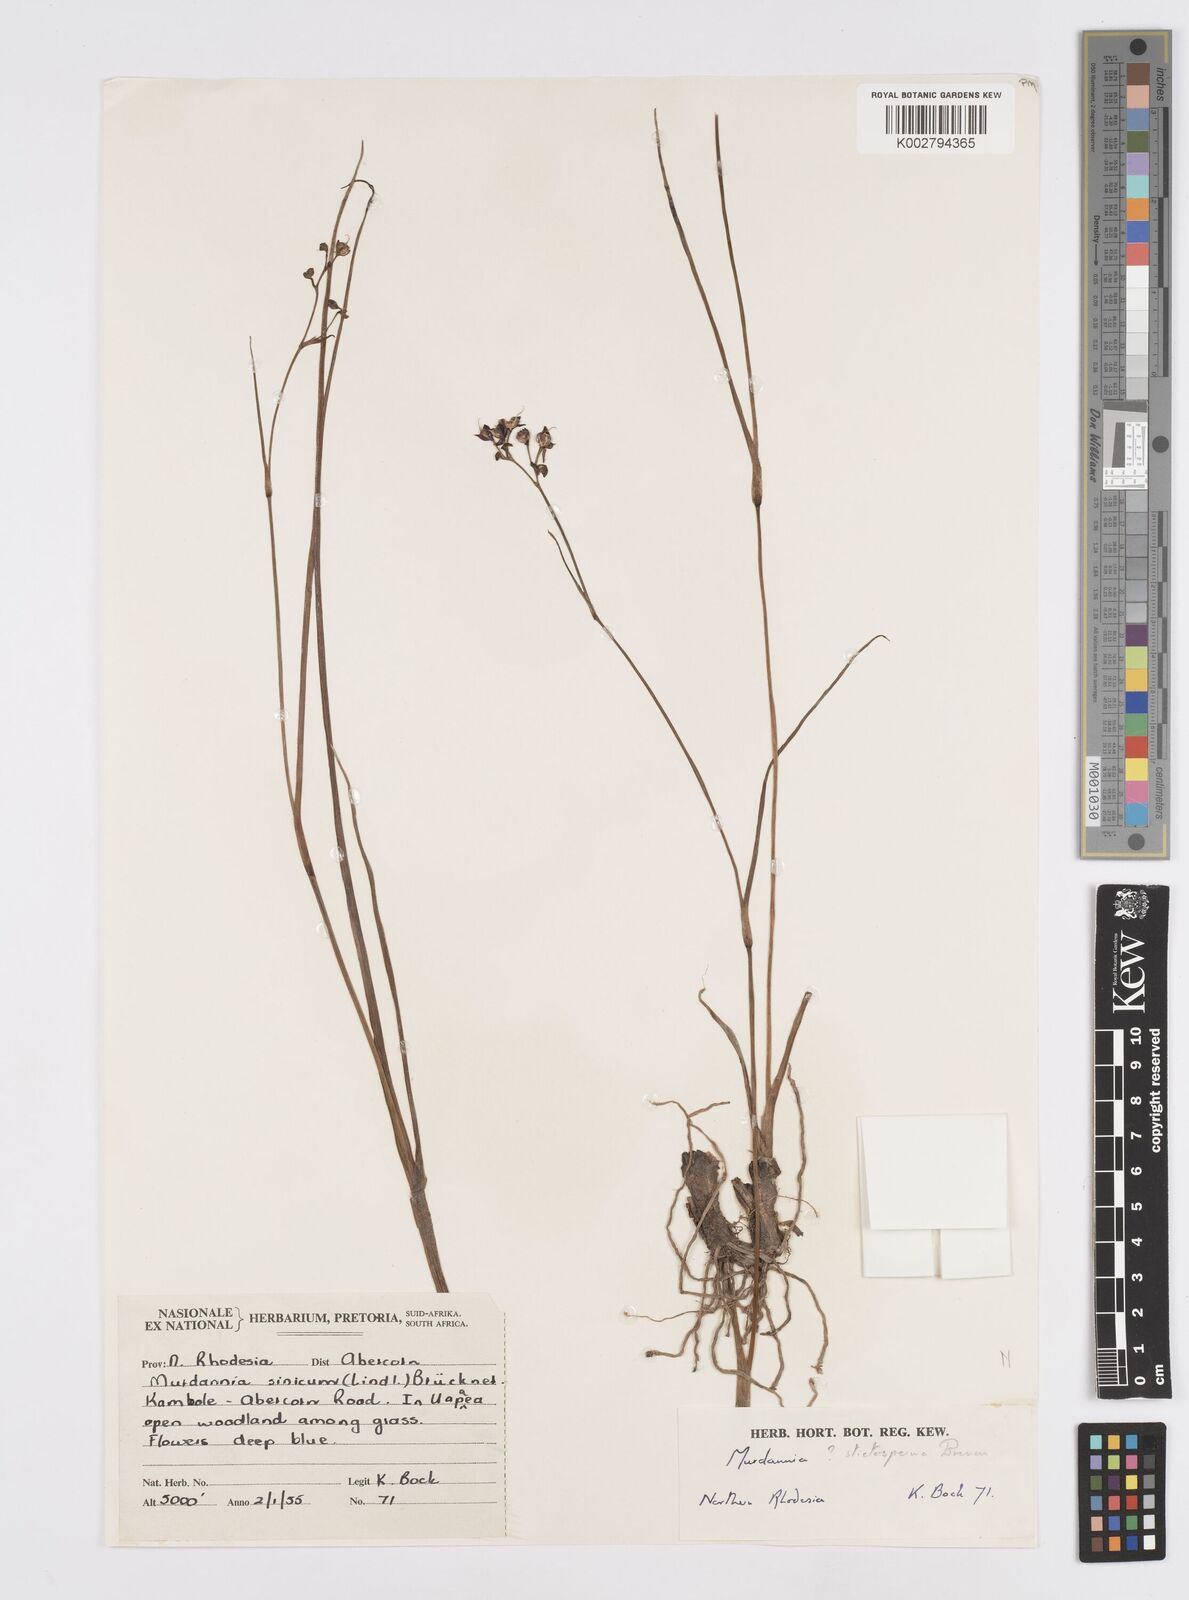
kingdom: Plantae
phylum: Tracheophyta
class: Liliopsida
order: Commelinales
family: Commelinaceae
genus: Murdannia
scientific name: Murdannia simplex
